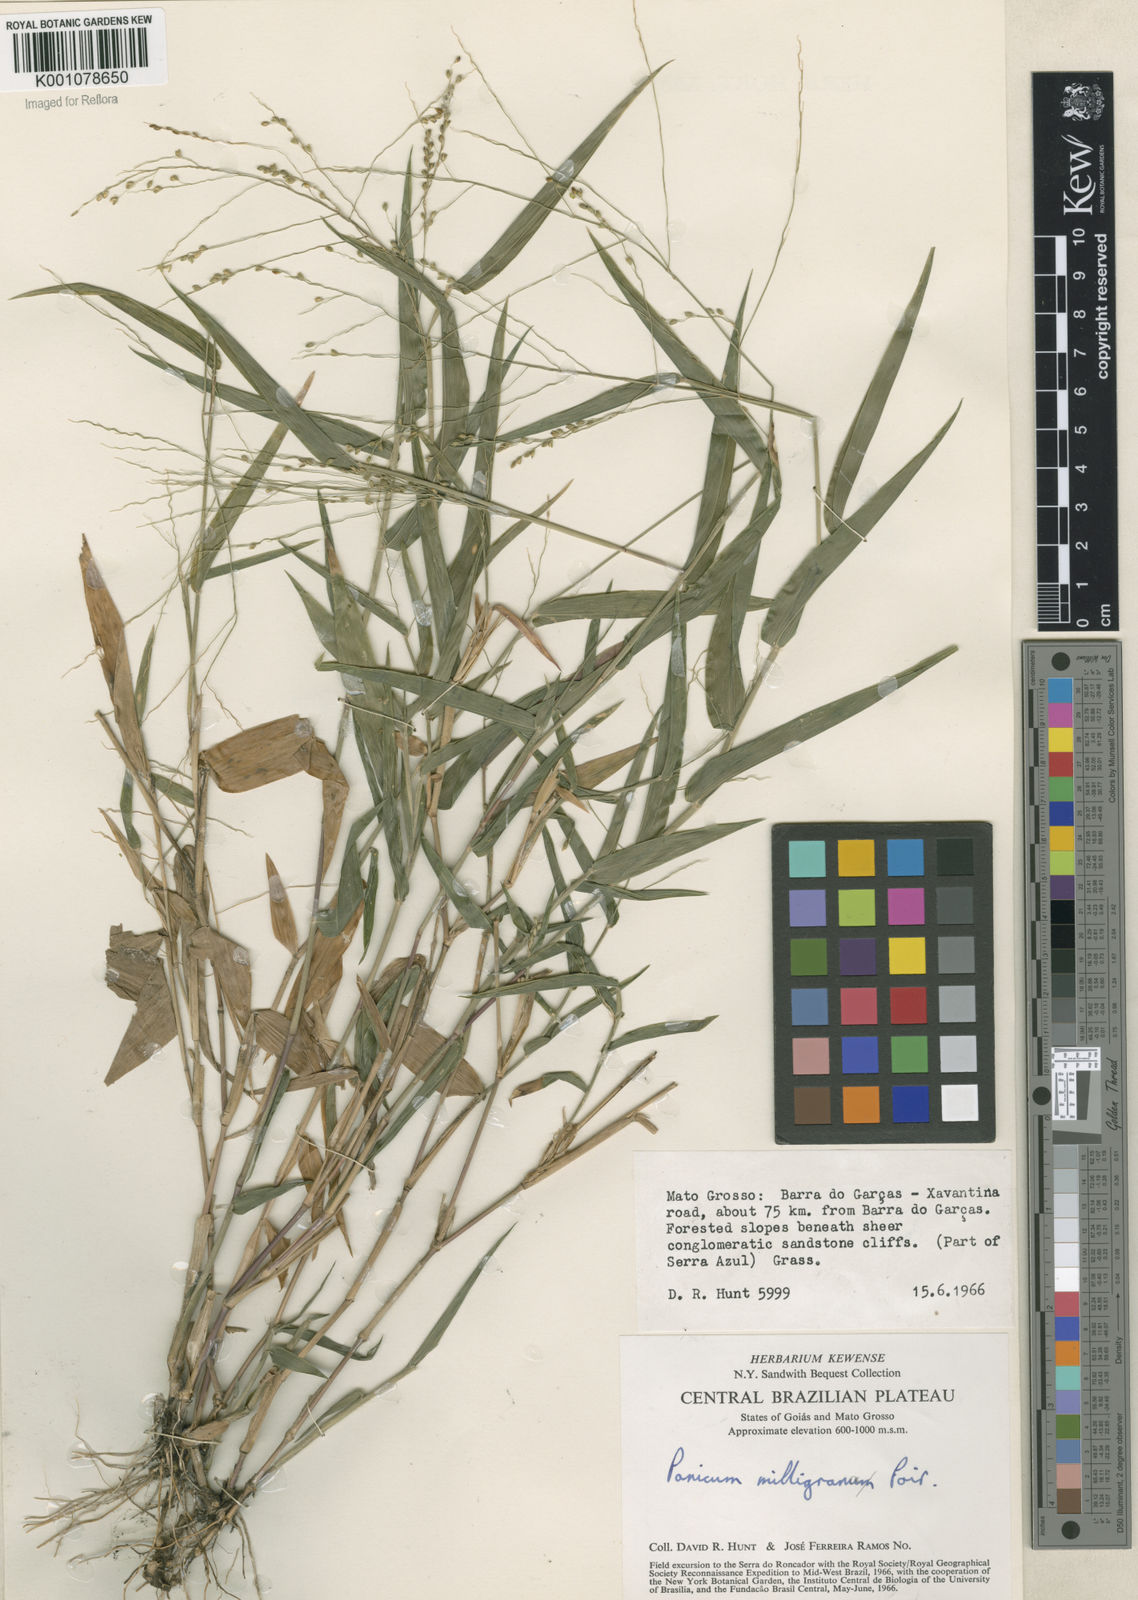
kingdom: Plantae
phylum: Tracheophyta
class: Liliopsida
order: Poales
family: Poaceae
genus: Panicum
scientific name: Panicum millegrana
